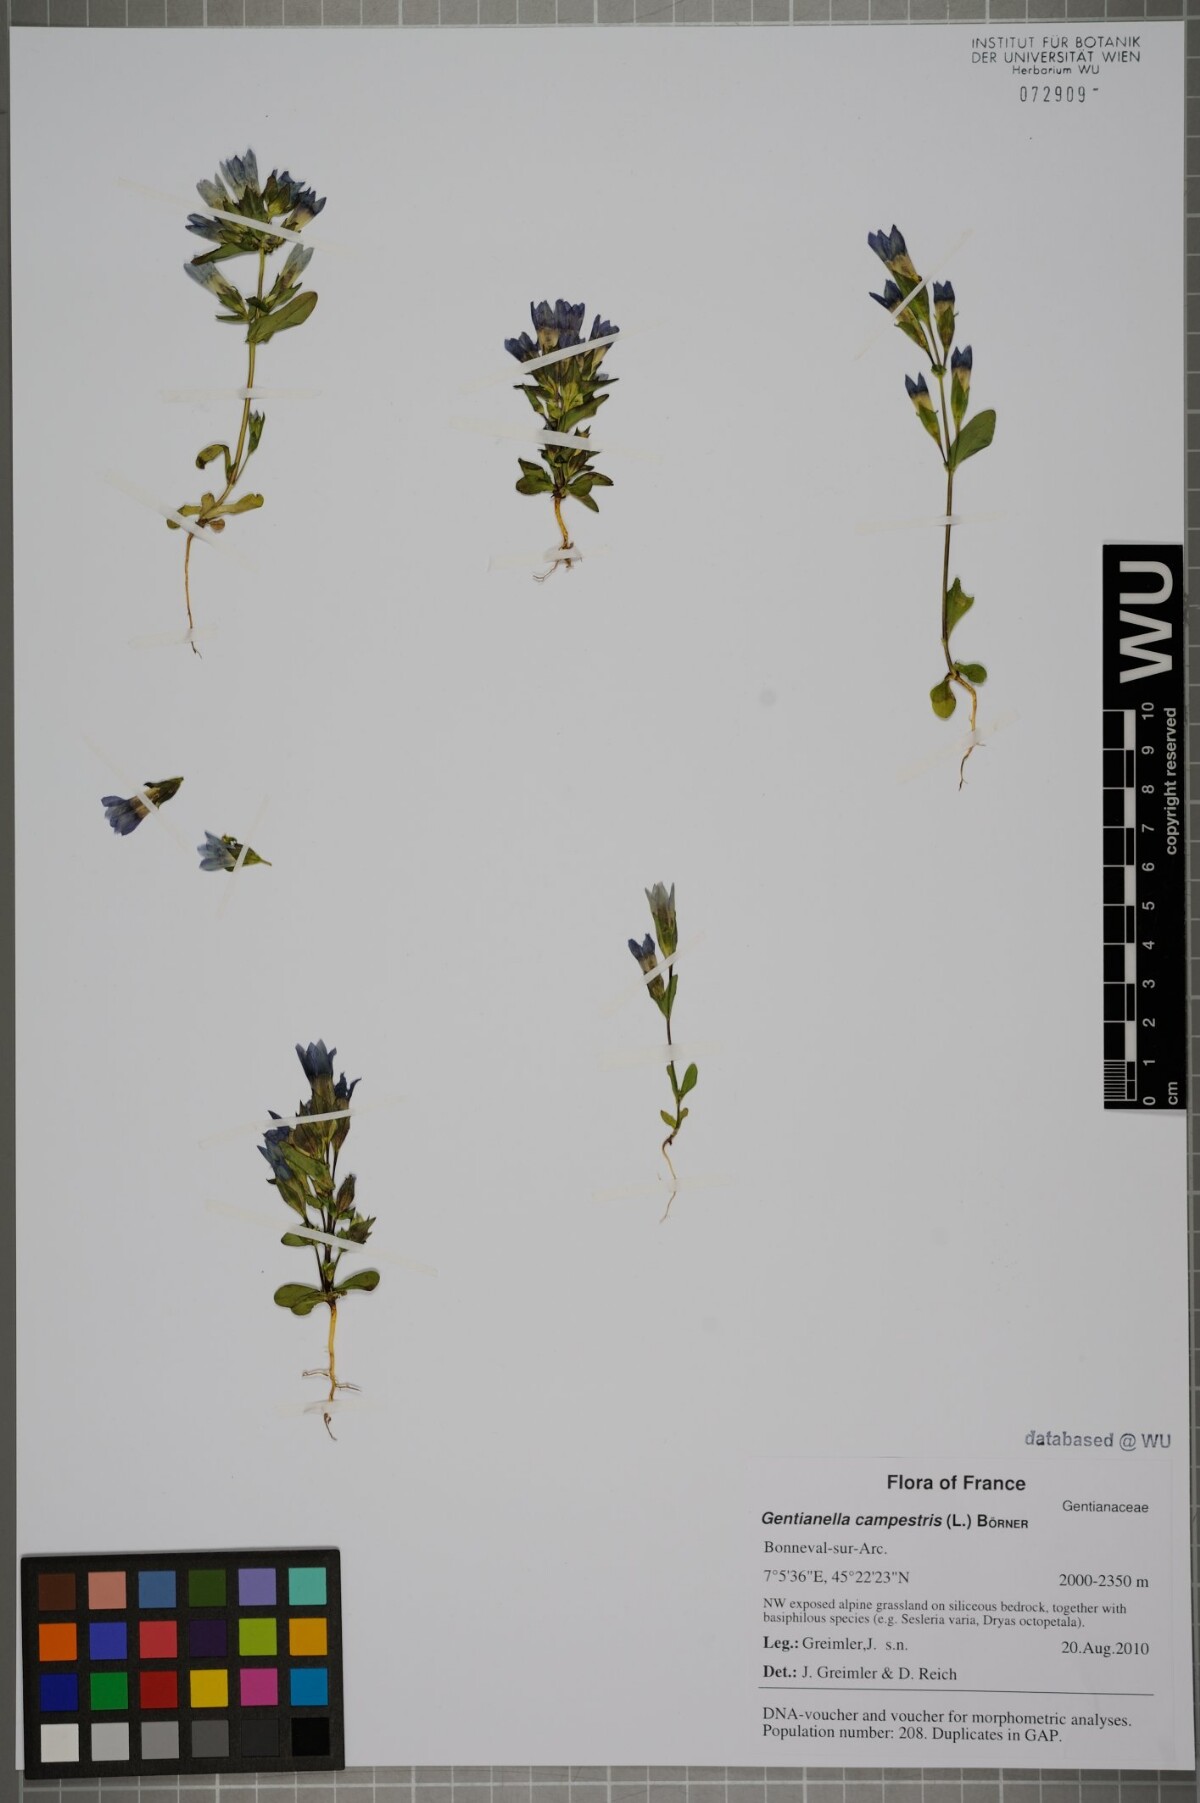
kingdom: Plantae
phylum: Tracheophyta
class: Magnoliopsida
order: Gentianales
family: Gentianaceae
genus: Gentianella
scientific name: Gentianella campestris
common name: Field gentian
